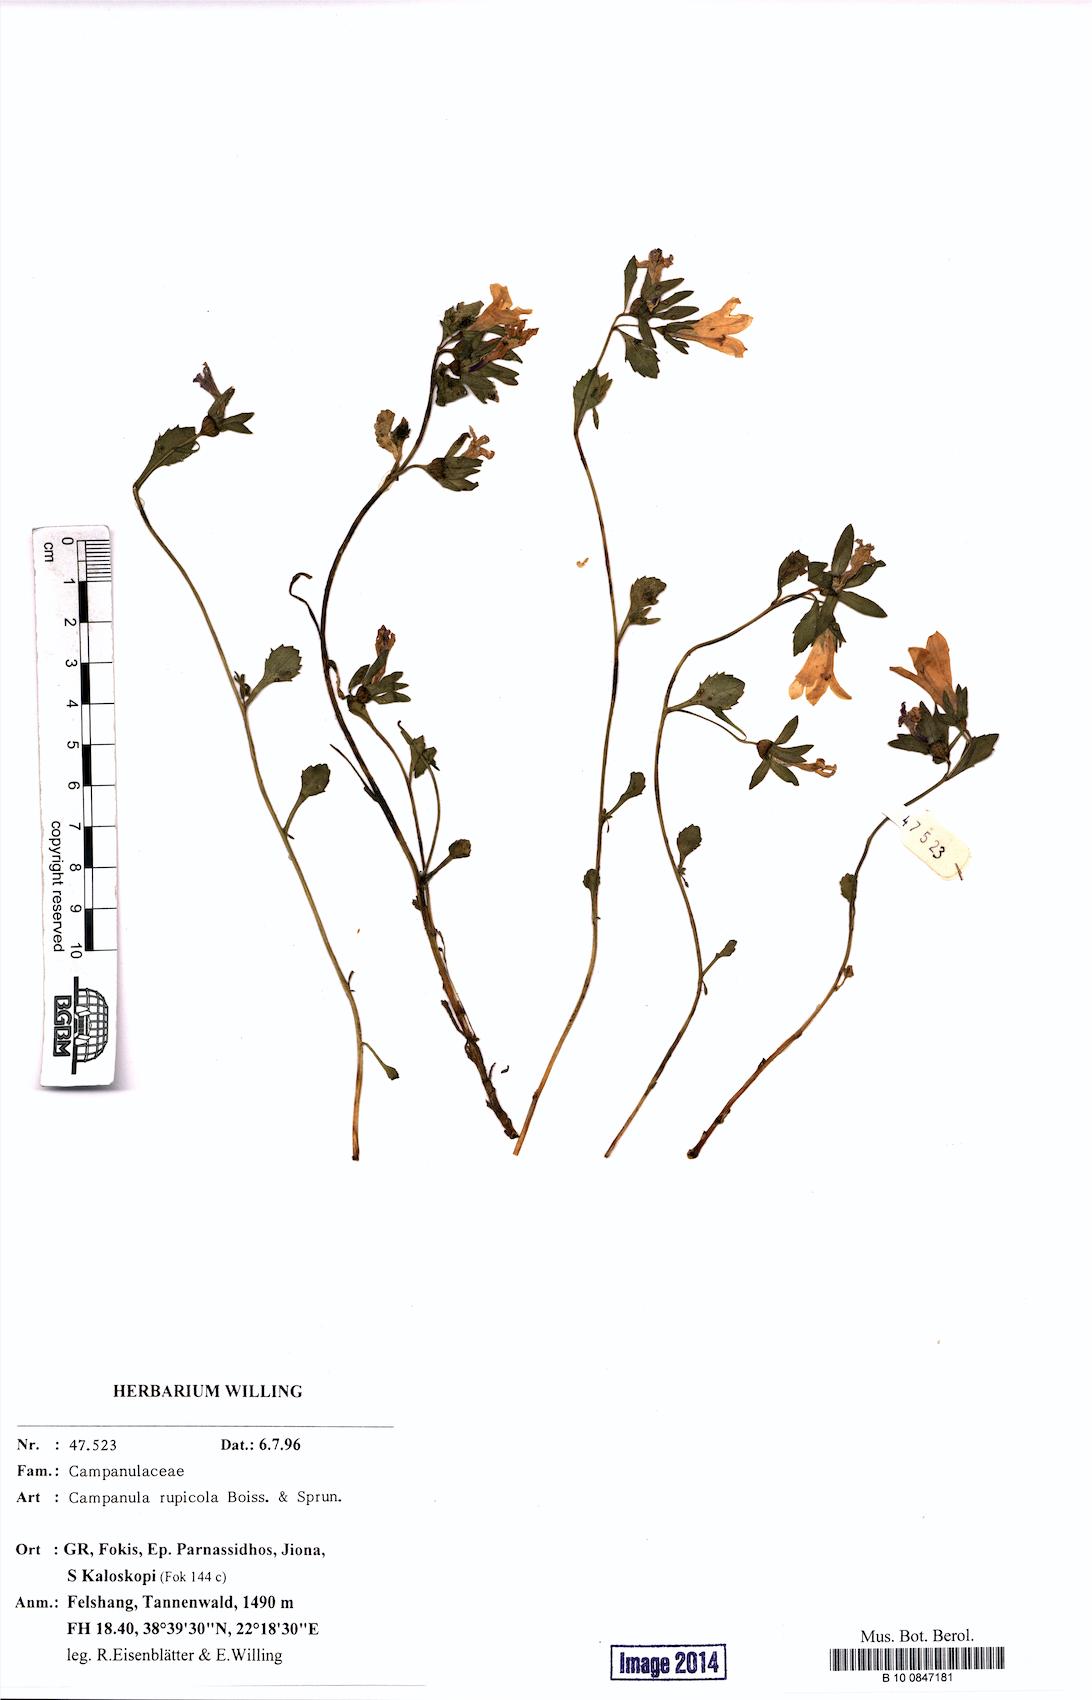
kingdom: Plantae
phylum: Tracheophyta
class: Magnoliopsida
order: Asterales
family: Campanulaceae
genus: Campanula
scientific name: Campanula rupicola
